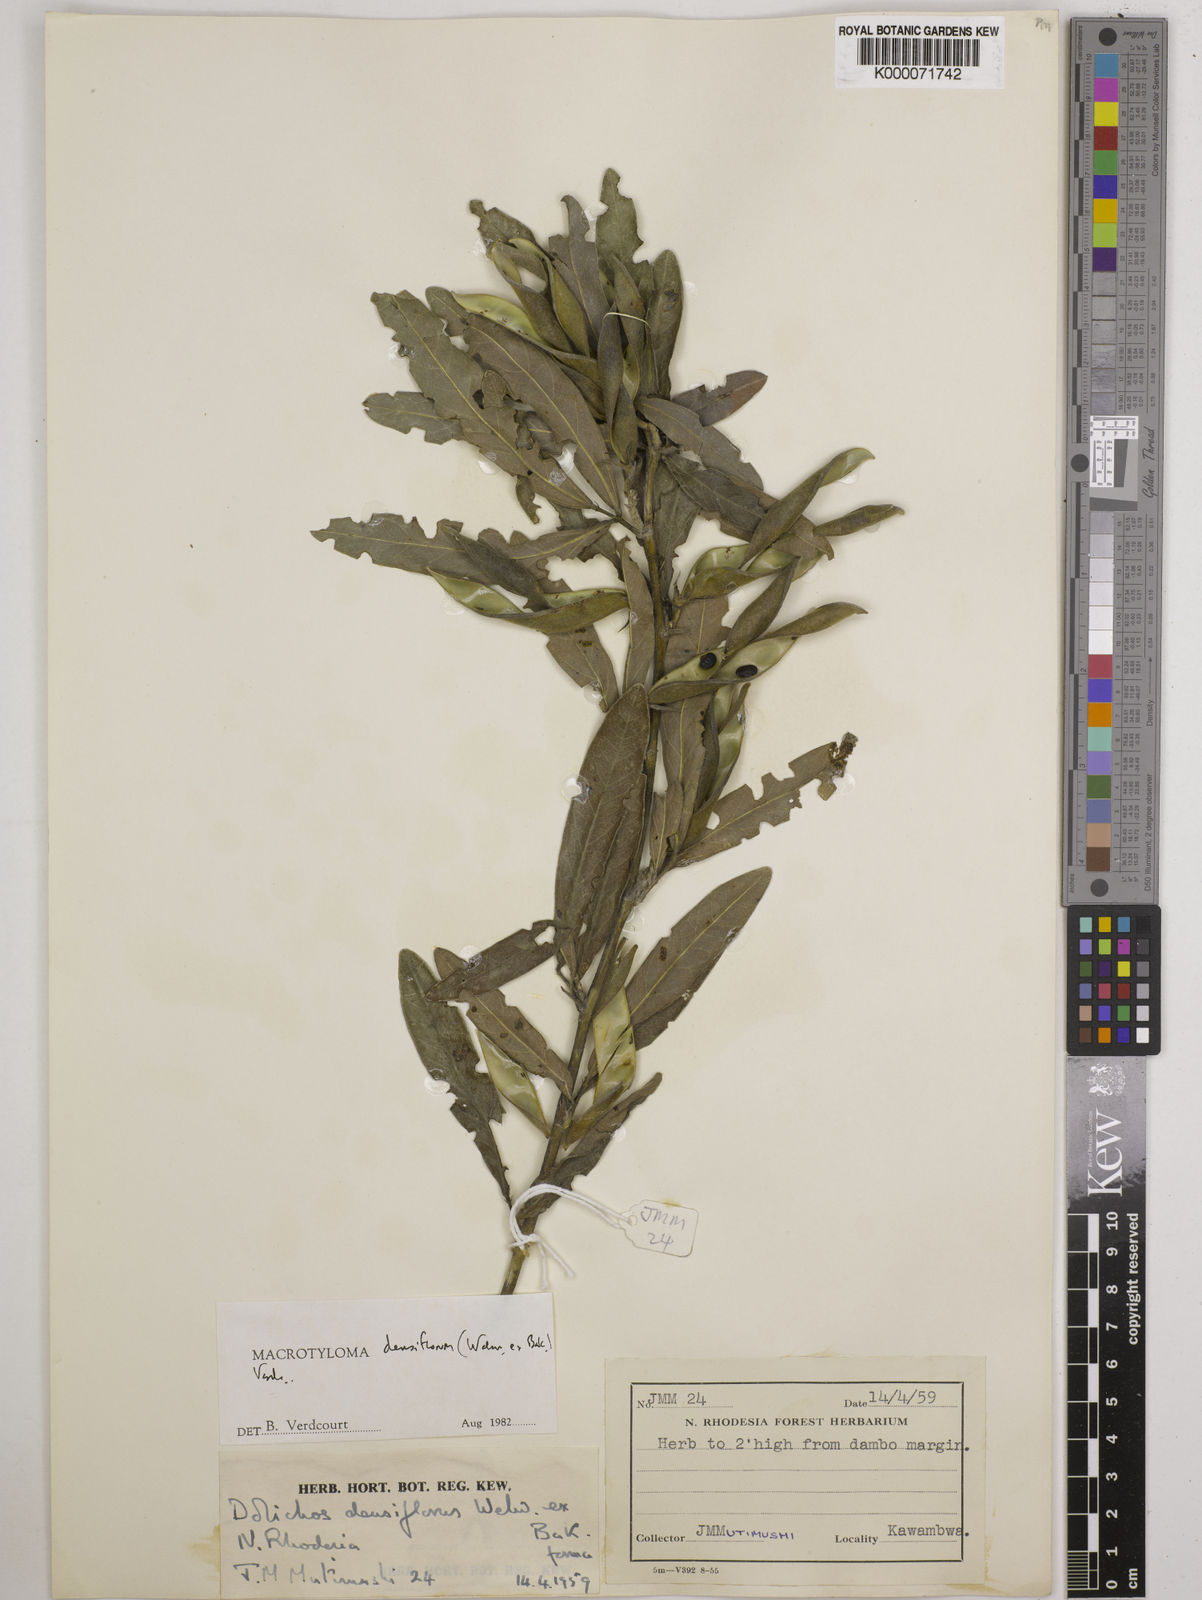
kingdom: Plantae
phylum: Tracheophyta
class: Magnoliopsida
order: Fabales
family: Fabaceae
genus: Macrotyloma
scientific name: Macrotyloma densiflorum
